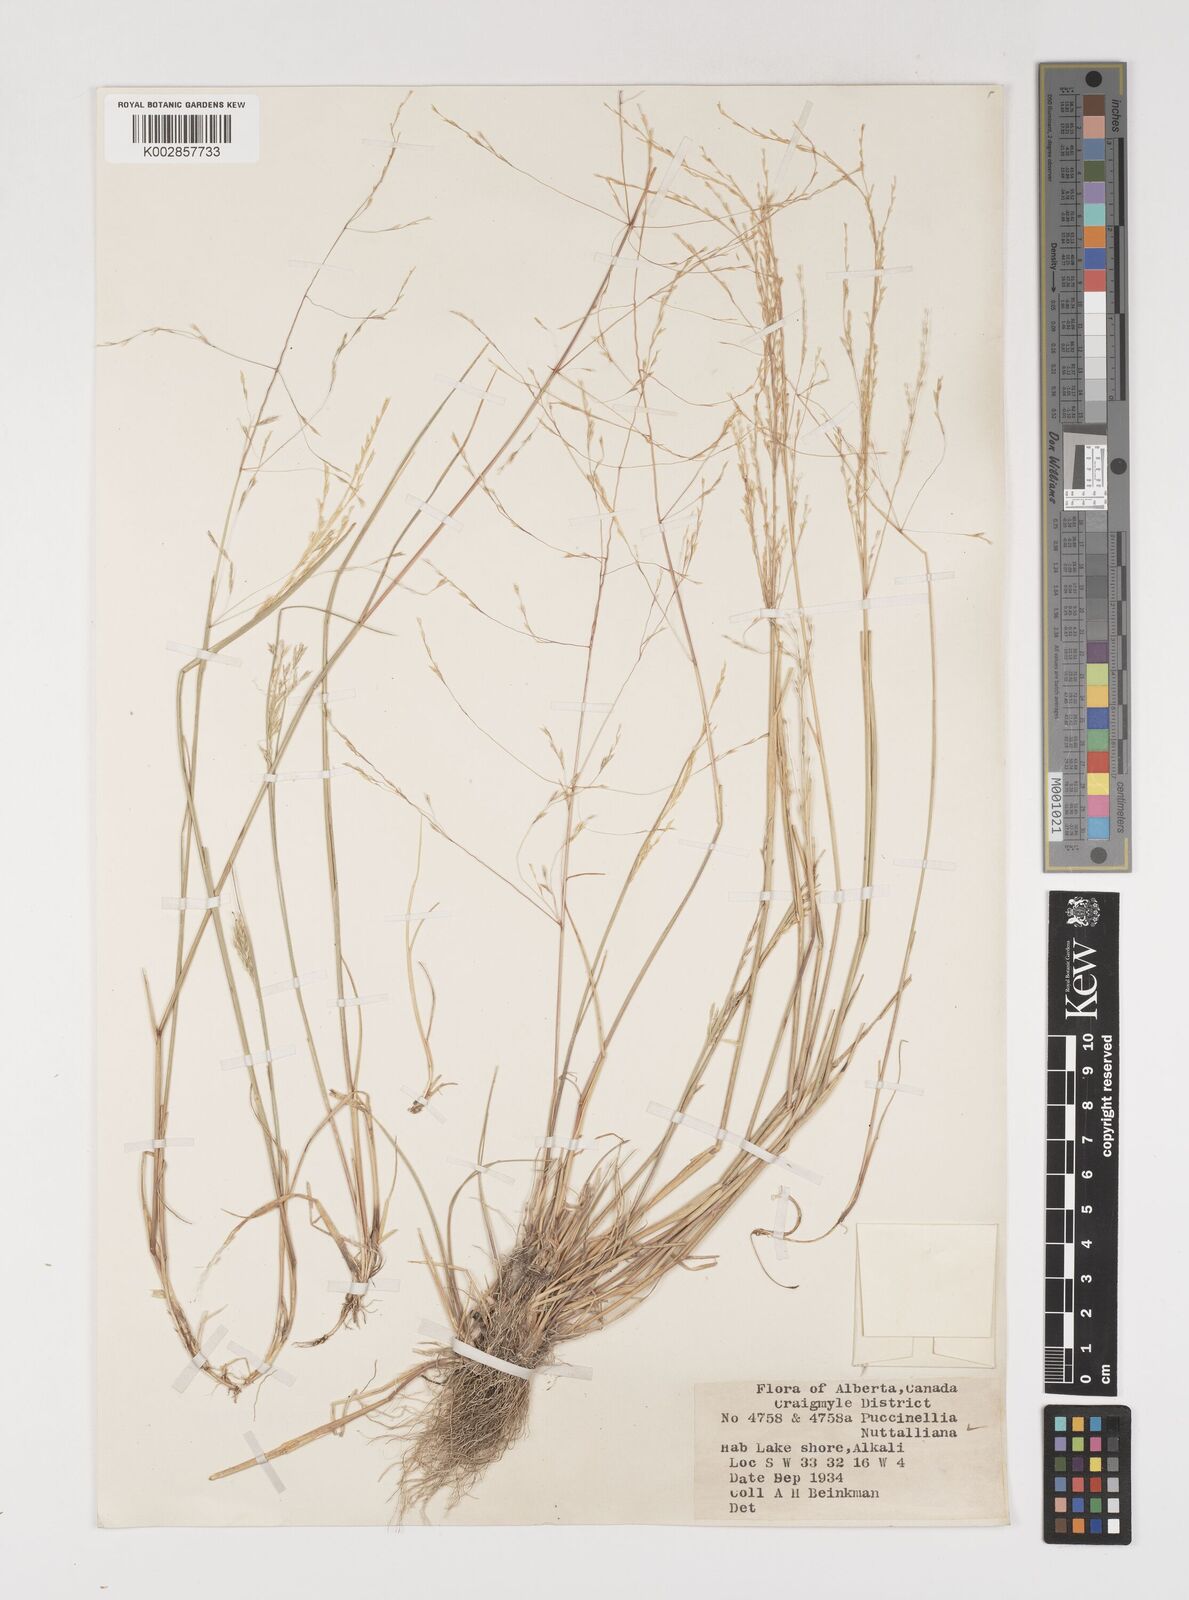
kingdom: Plantae
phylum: Tracheophyta
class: Liliopsida
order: Poales
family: Poaceae
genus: Puccinellia
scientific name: Puccinellia nuttalliana
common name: Nuttall's alkali grass
